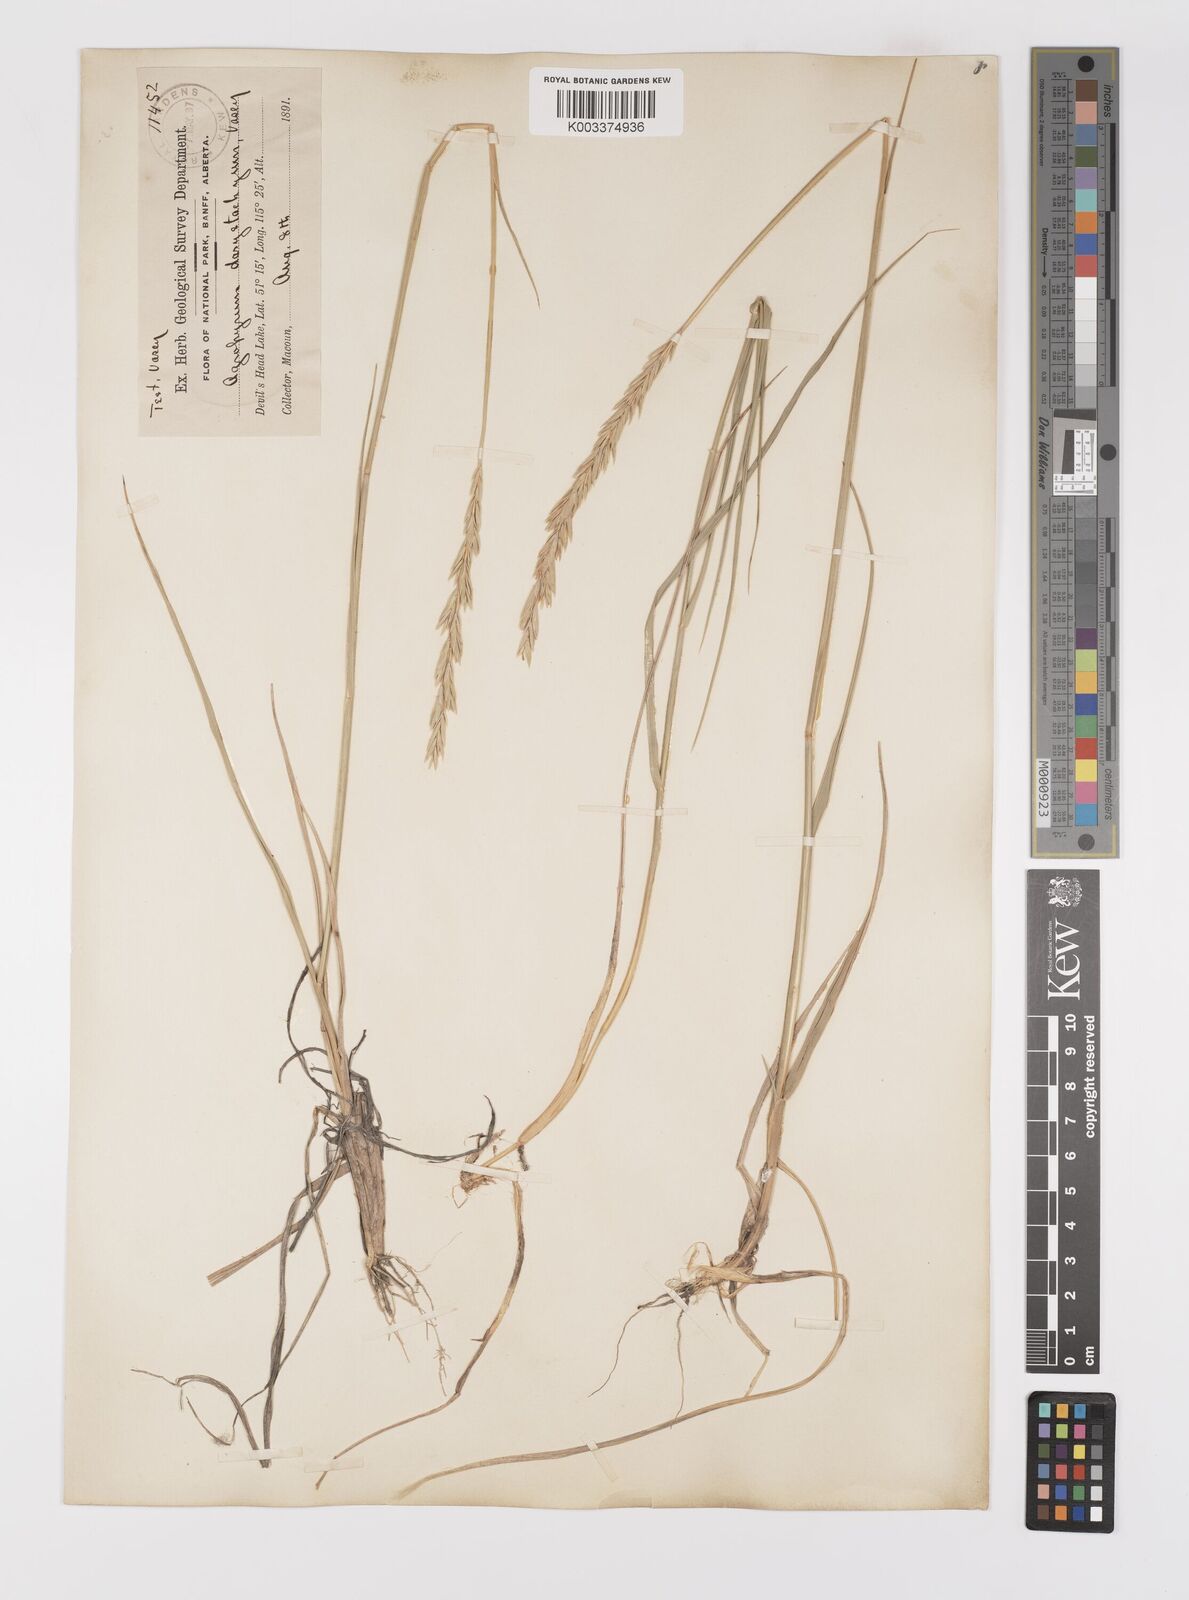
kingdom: Plantae
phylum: Tracheophyta
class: Liliopsida
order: Poales
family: Poaceae
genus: Elymus
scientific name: Elymus lanceolatus
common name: Thick-spike wheatgrass
